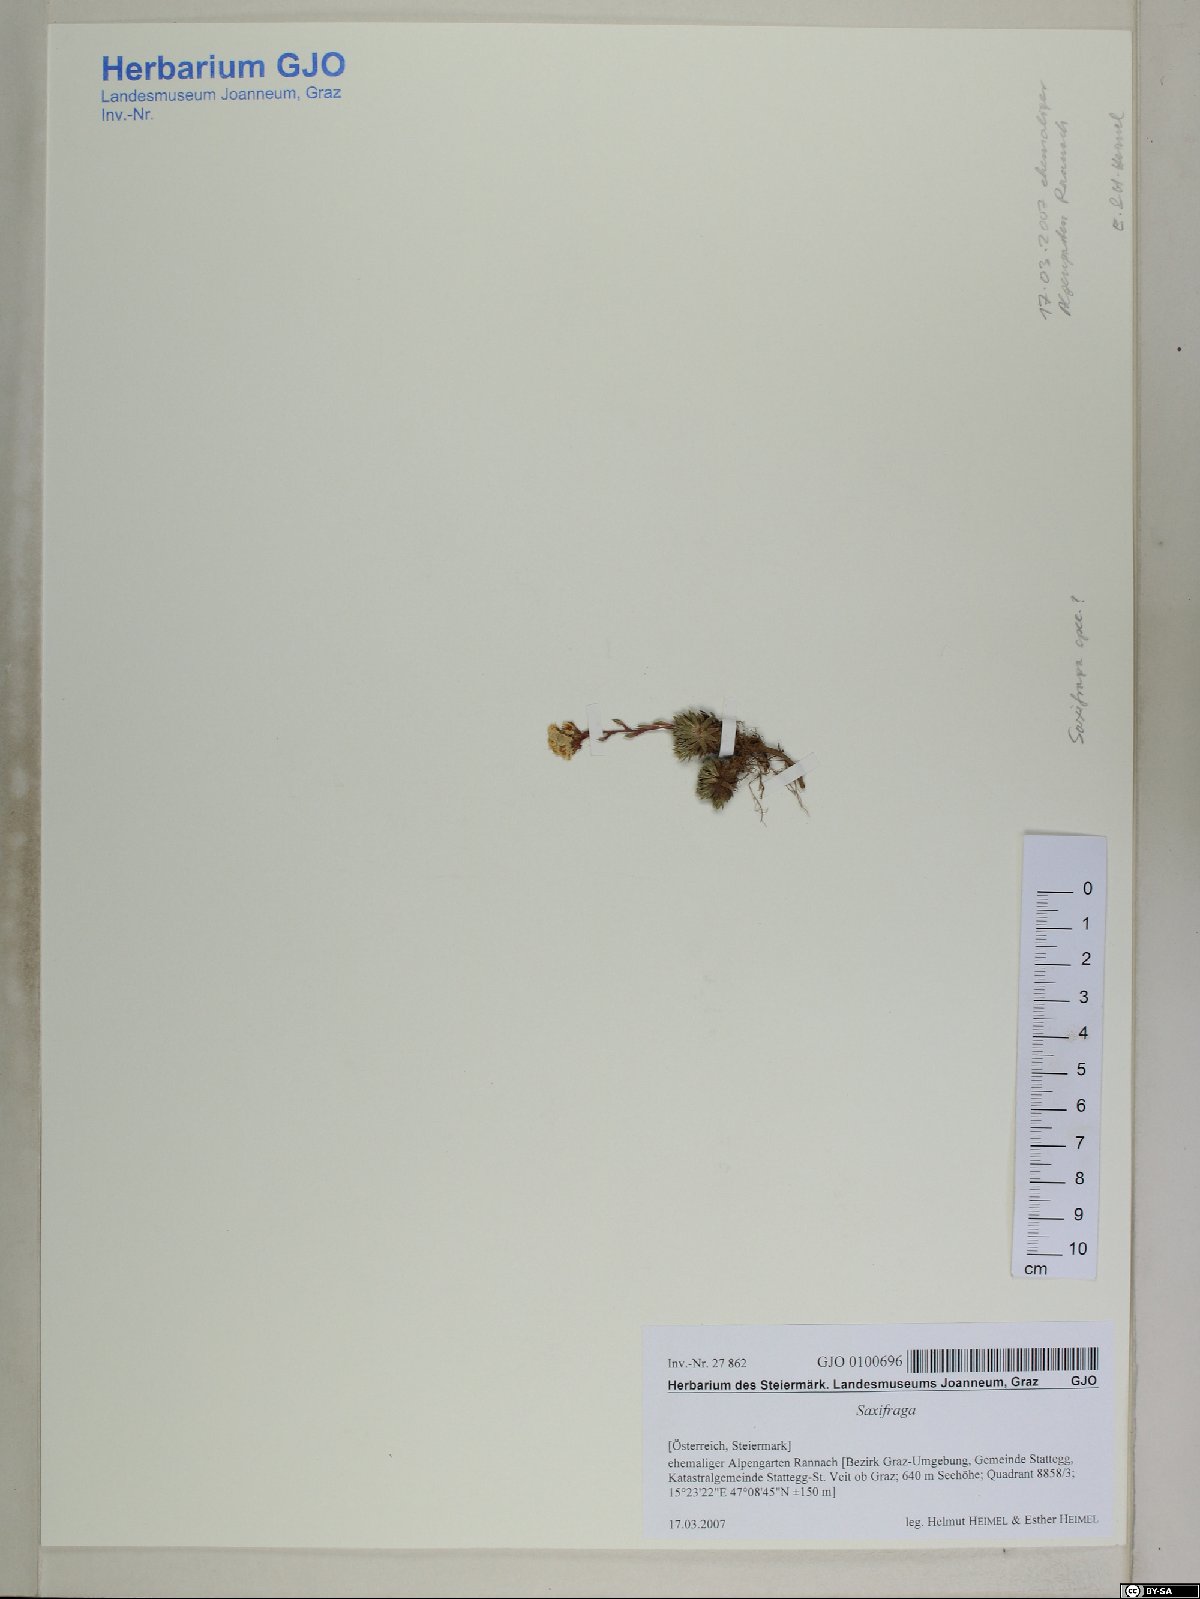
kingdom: Plantae
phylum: Tracheophyta
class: Magnoliopsida
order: Saxifragales
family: Saxifragaceae
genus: Saxifraga
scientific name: Saxifraga
